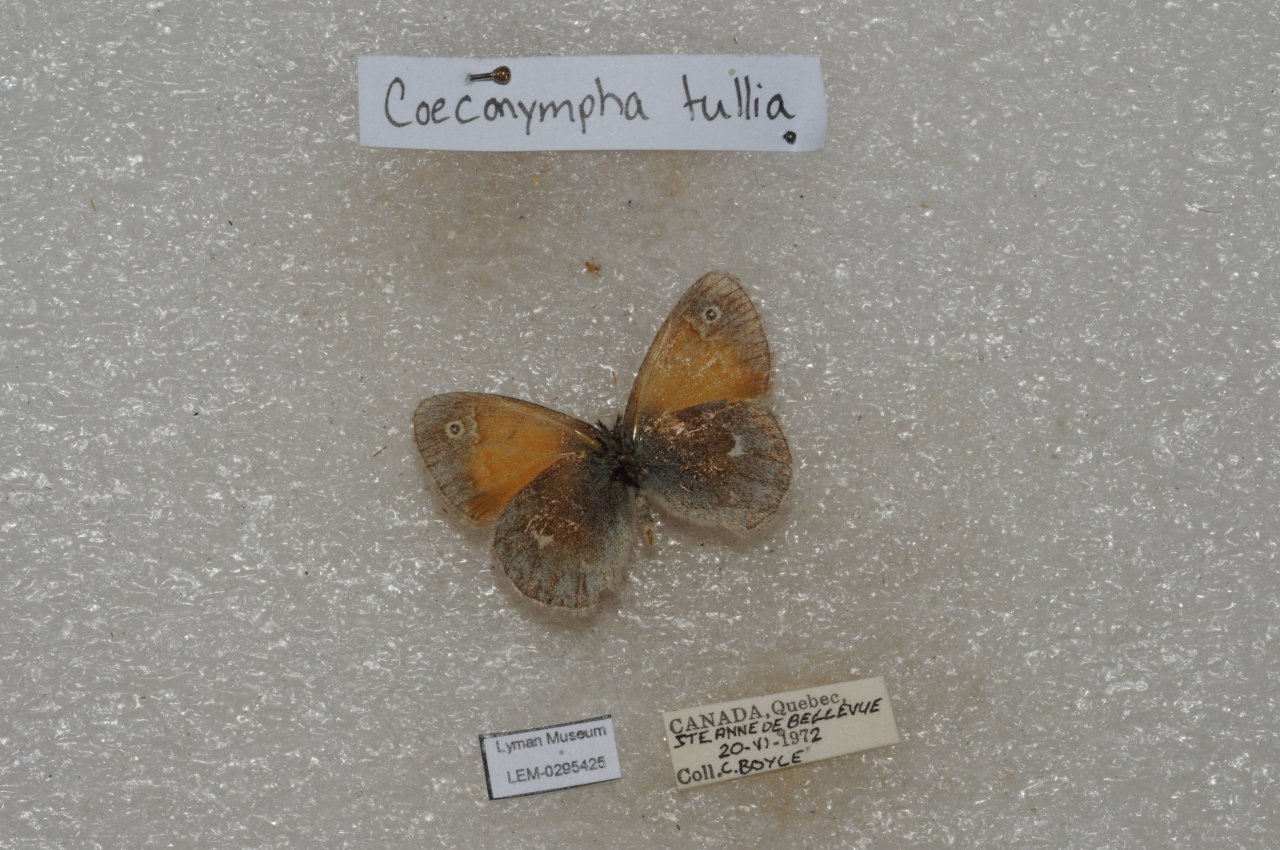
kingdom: Animalia
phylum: Arthropoda
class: Insecta
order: Lepidoptera
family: Nymphalidae
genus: Coenonympha
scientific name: Coenonympha tullia
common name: Large Heath
